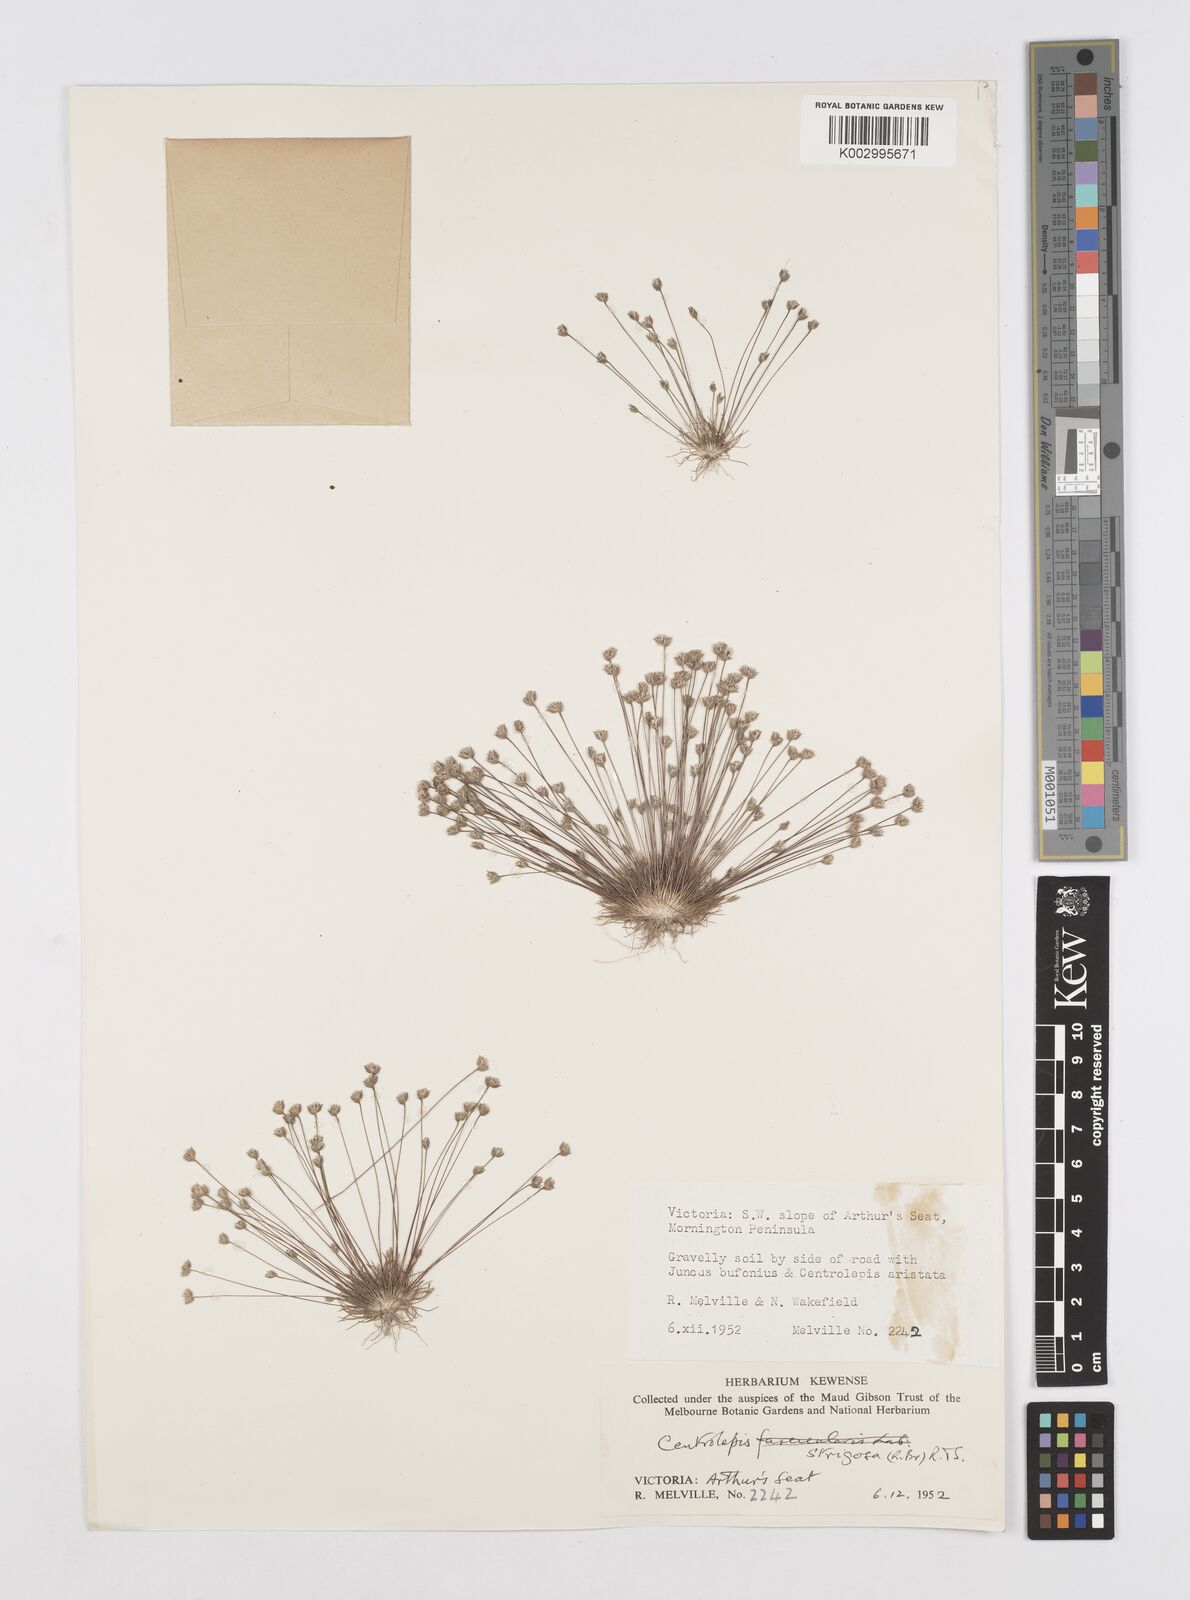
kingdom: Plantae
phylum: Tracheophyta
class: Liliopsida
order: Poales
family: Restionaceae
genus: Centrolepis
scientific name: Centrolepis strigosa
